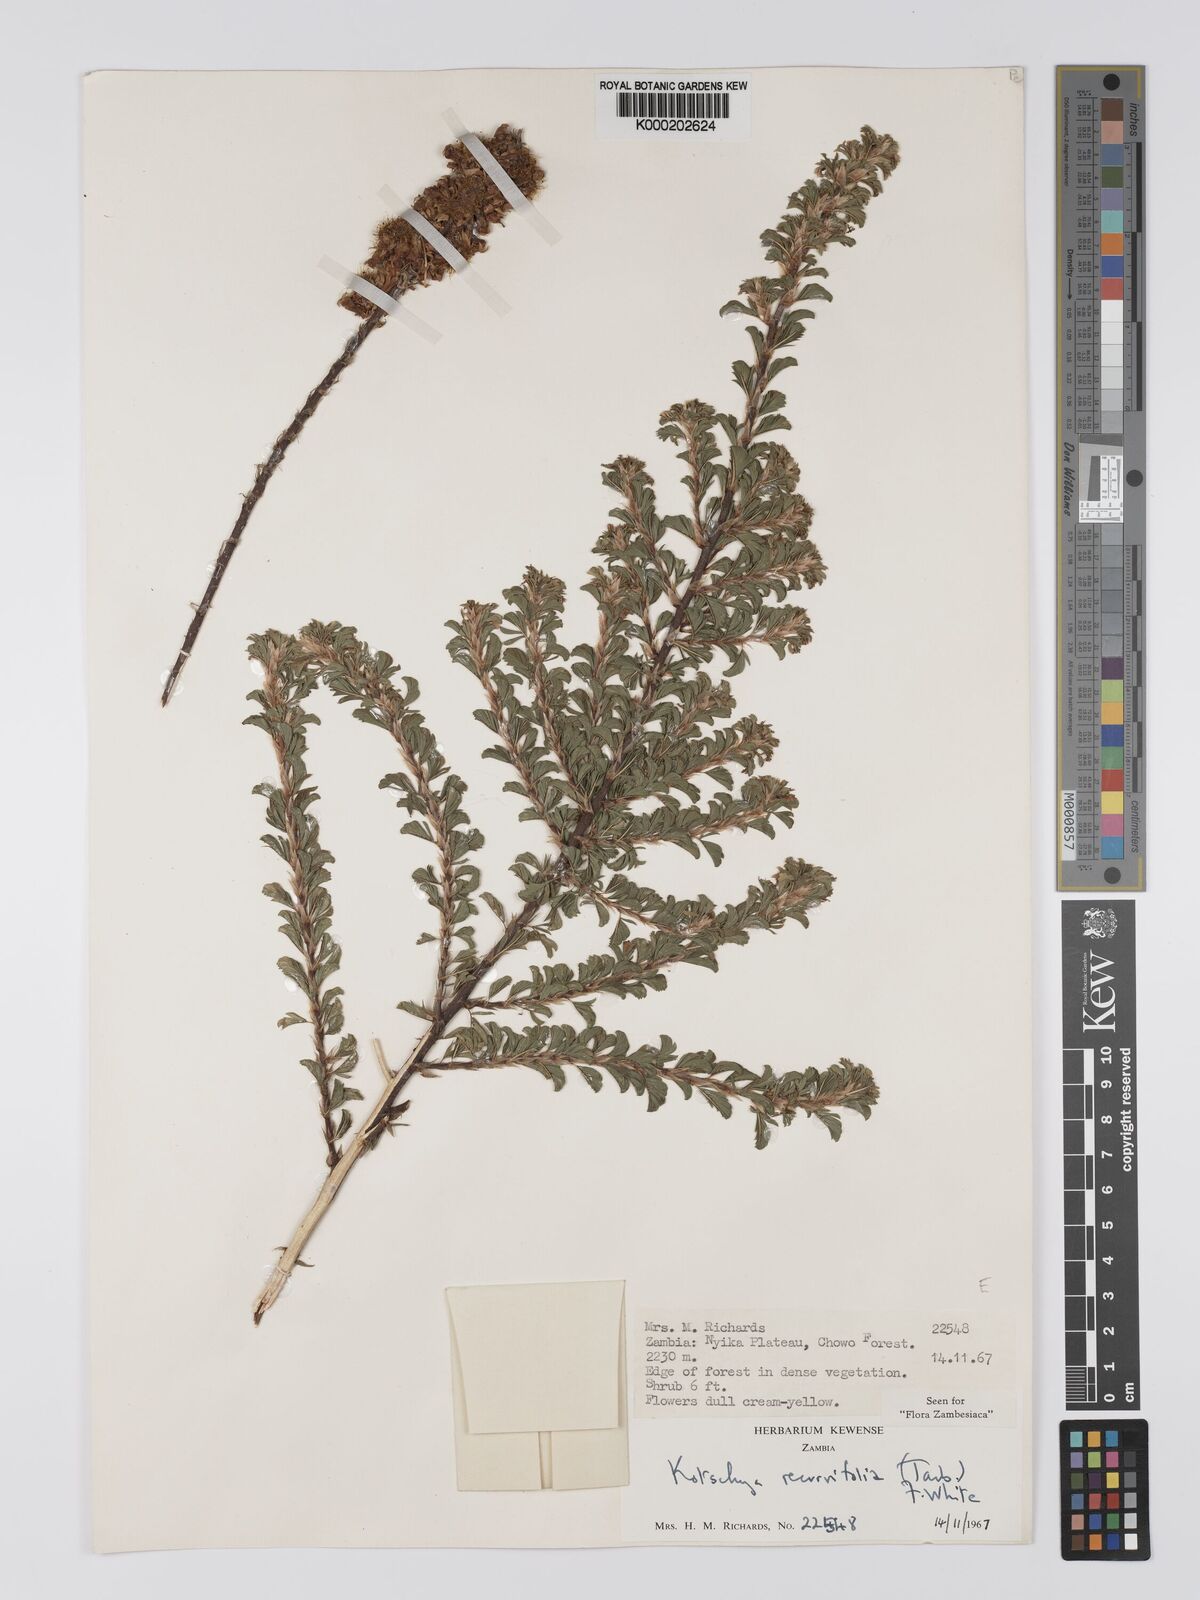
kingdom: Plantae
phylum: Tracheophyta
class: Magnoliopsida
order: Fabales
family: Fabaceae
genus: Kotschya
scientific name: Kotschya recurvifolia
